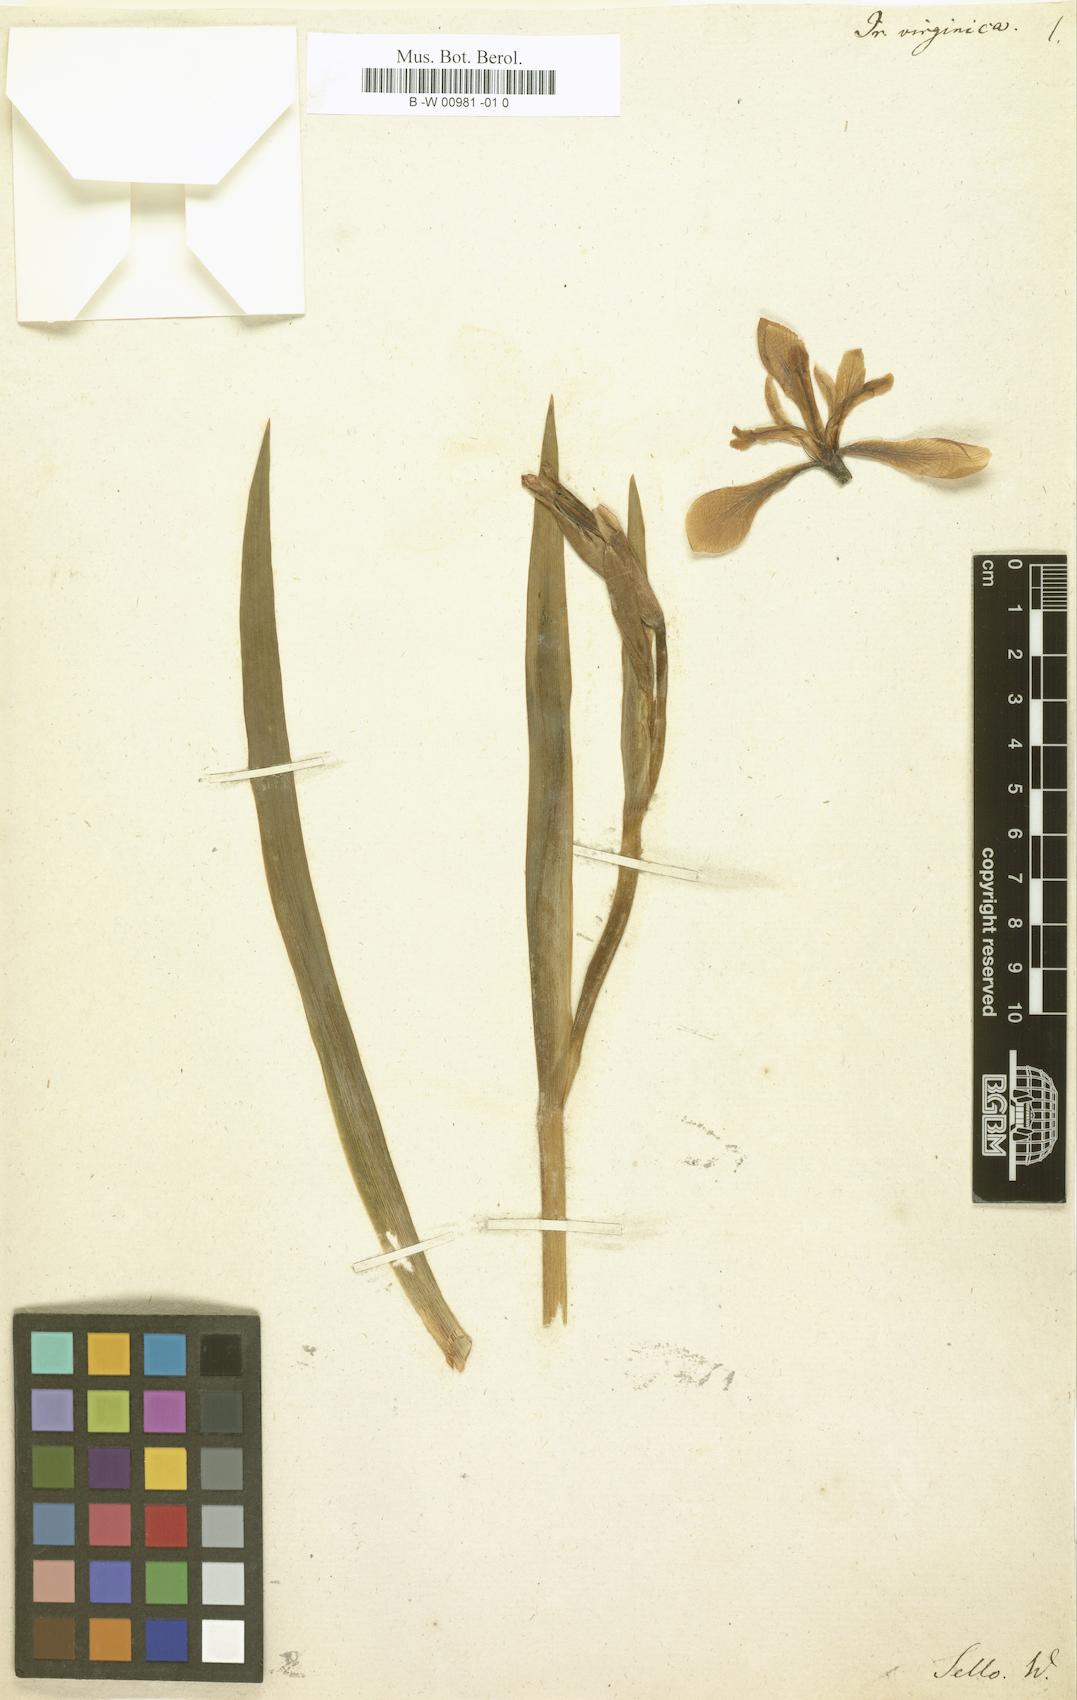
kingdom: Plantae
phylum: Tracheophyta
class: Liliopsida
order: Asparagales
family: Iridaceae
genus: Iris
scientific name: Iris virginica
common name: Southern blue flag
